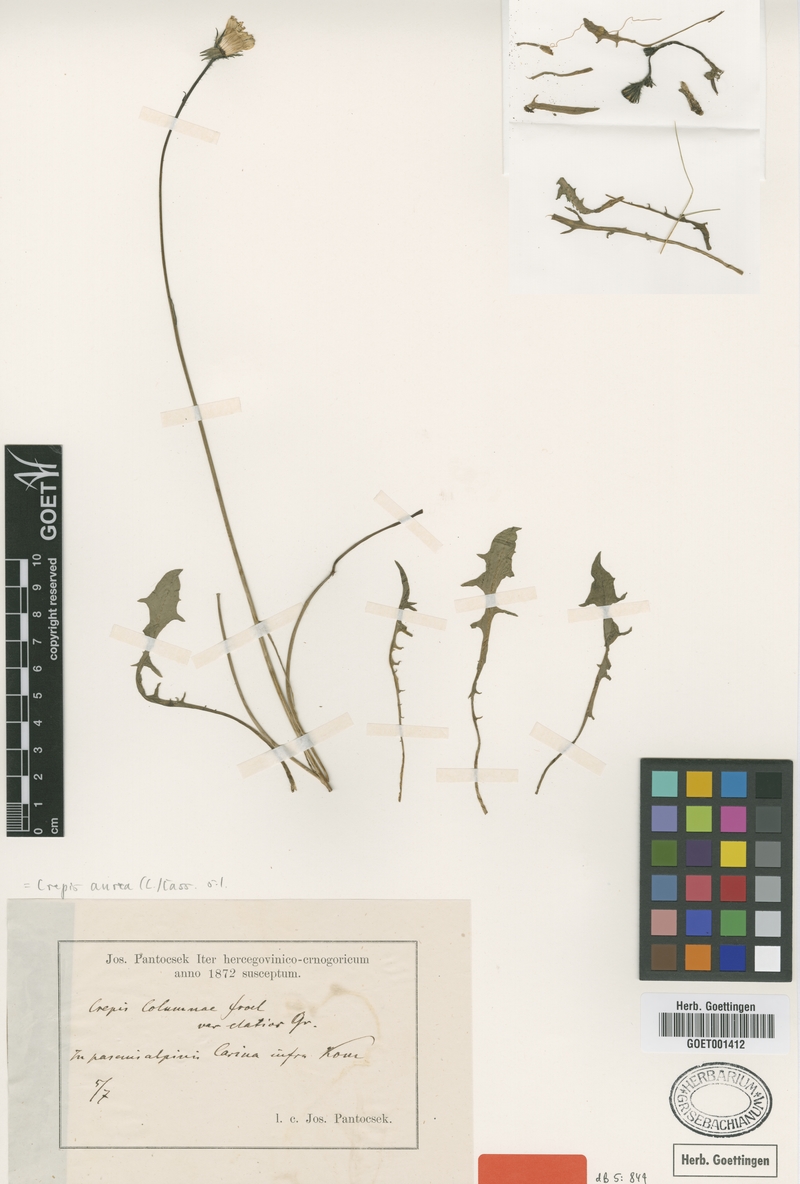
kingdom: Plantae
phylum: Tracheophyta
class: Magnoliopsida
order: Asterales
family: Asteraceae
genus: Crepis
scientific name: Crepis aurea
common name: Golden hawk's-beard
